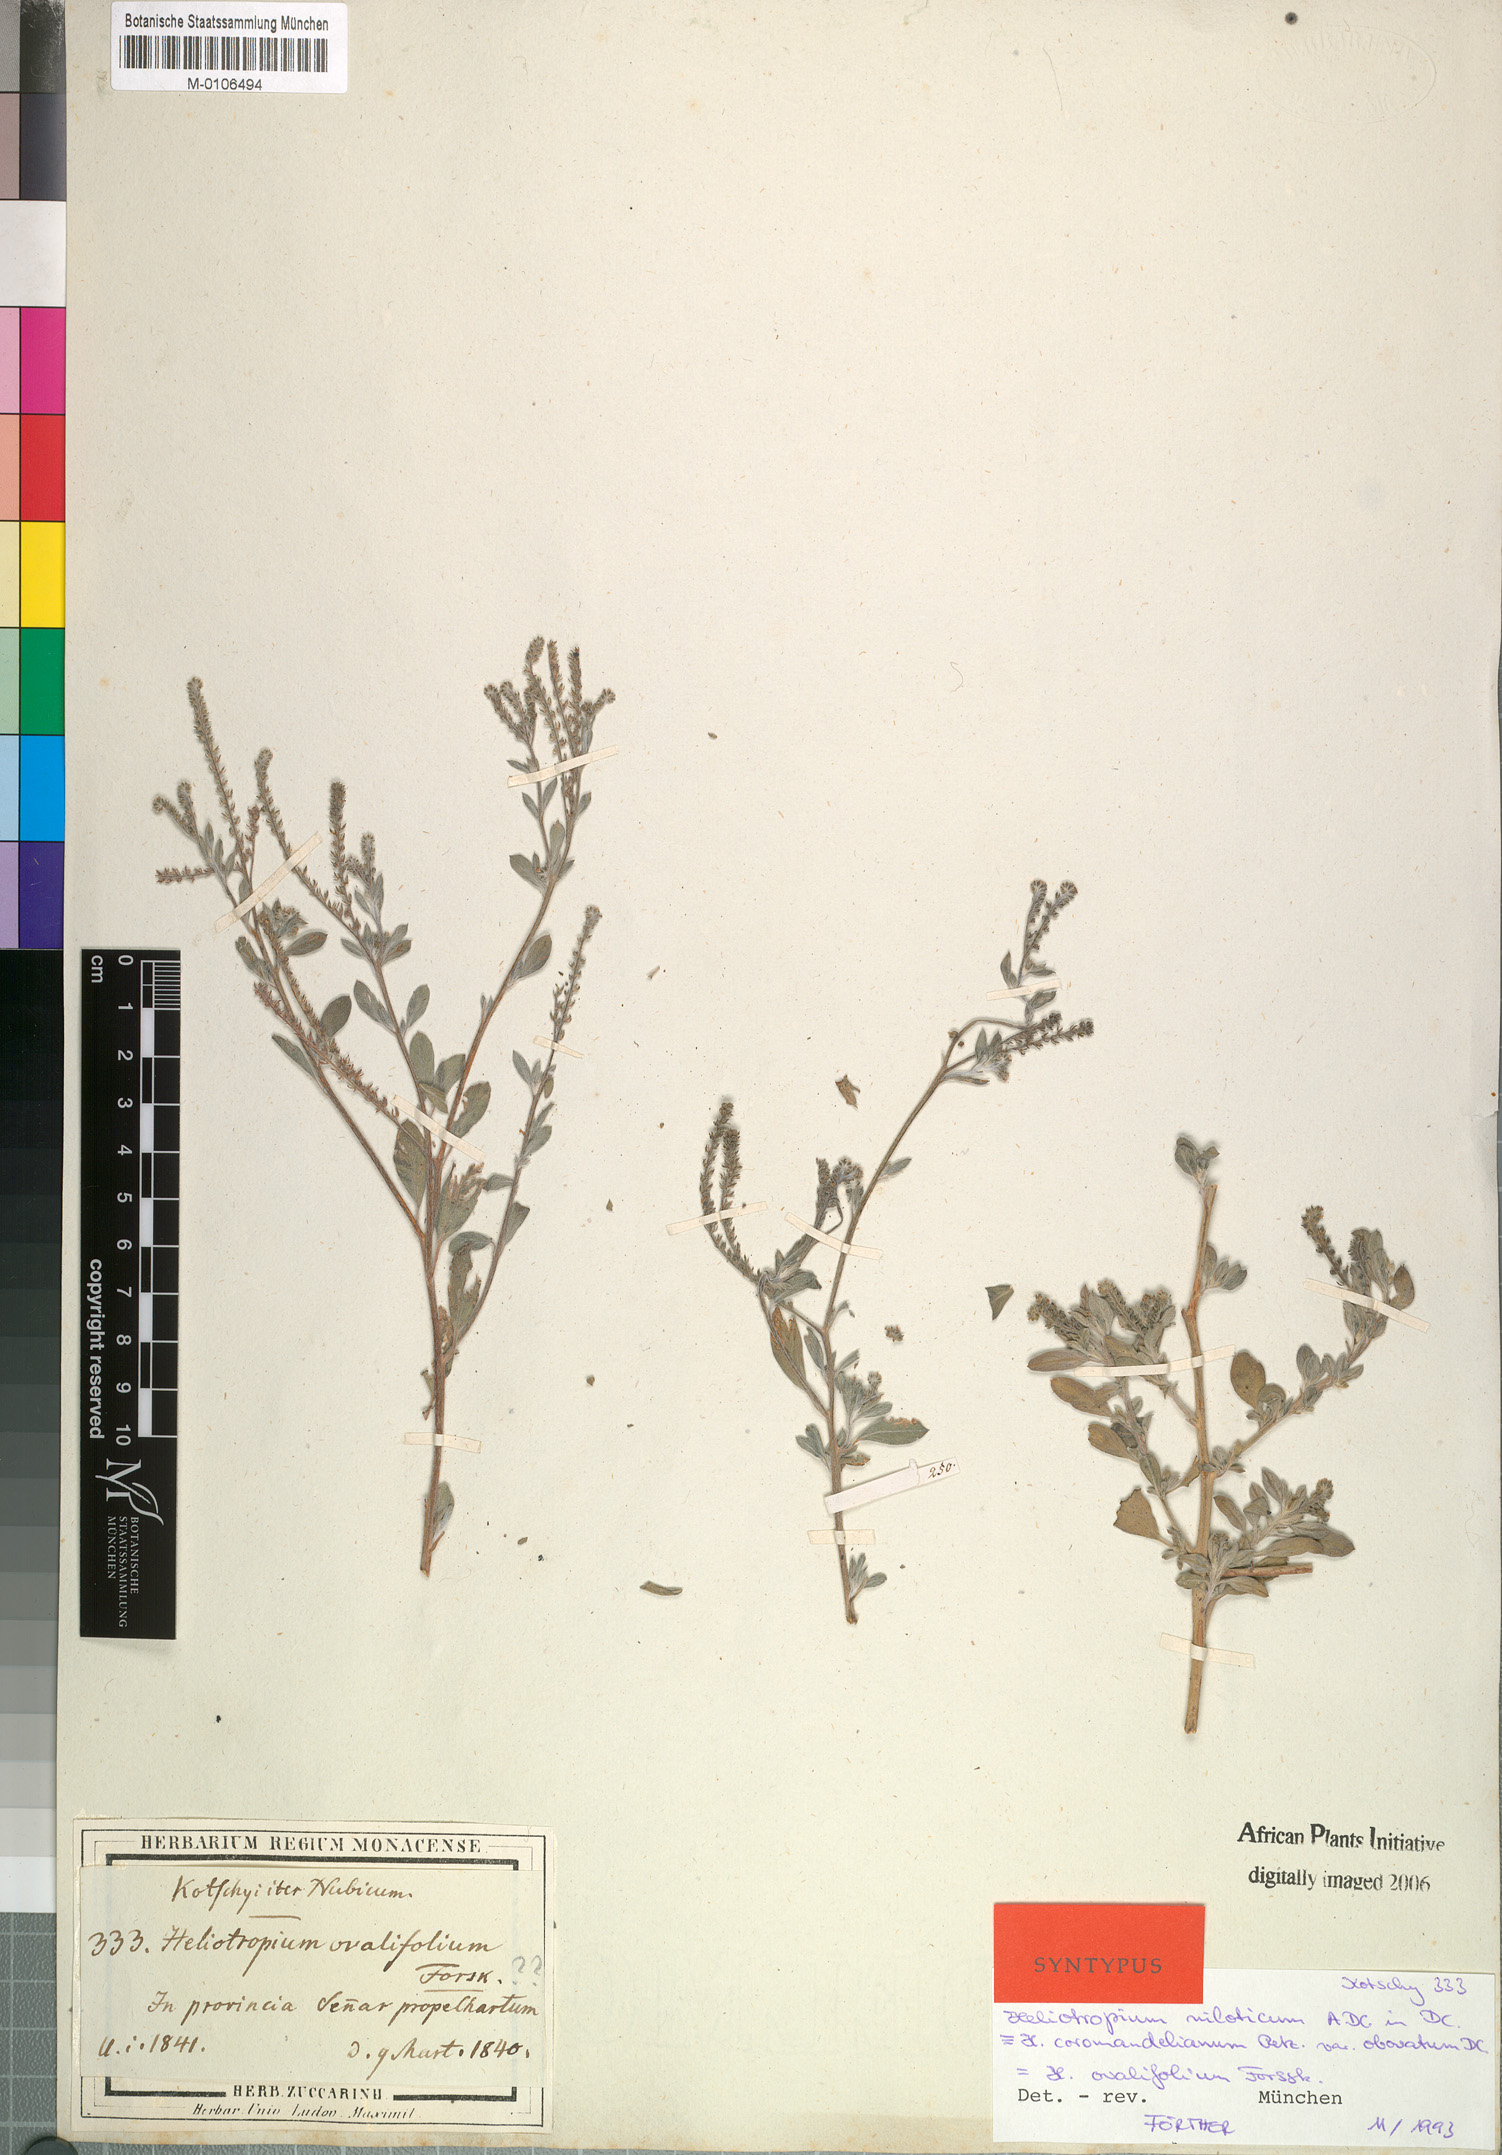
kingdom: Plantae
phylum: Tracheophyta
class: Magnoliopsida
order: Boraginales
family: Heliotropiaceae
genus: Euploca
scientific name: Euploca ovalifolia
